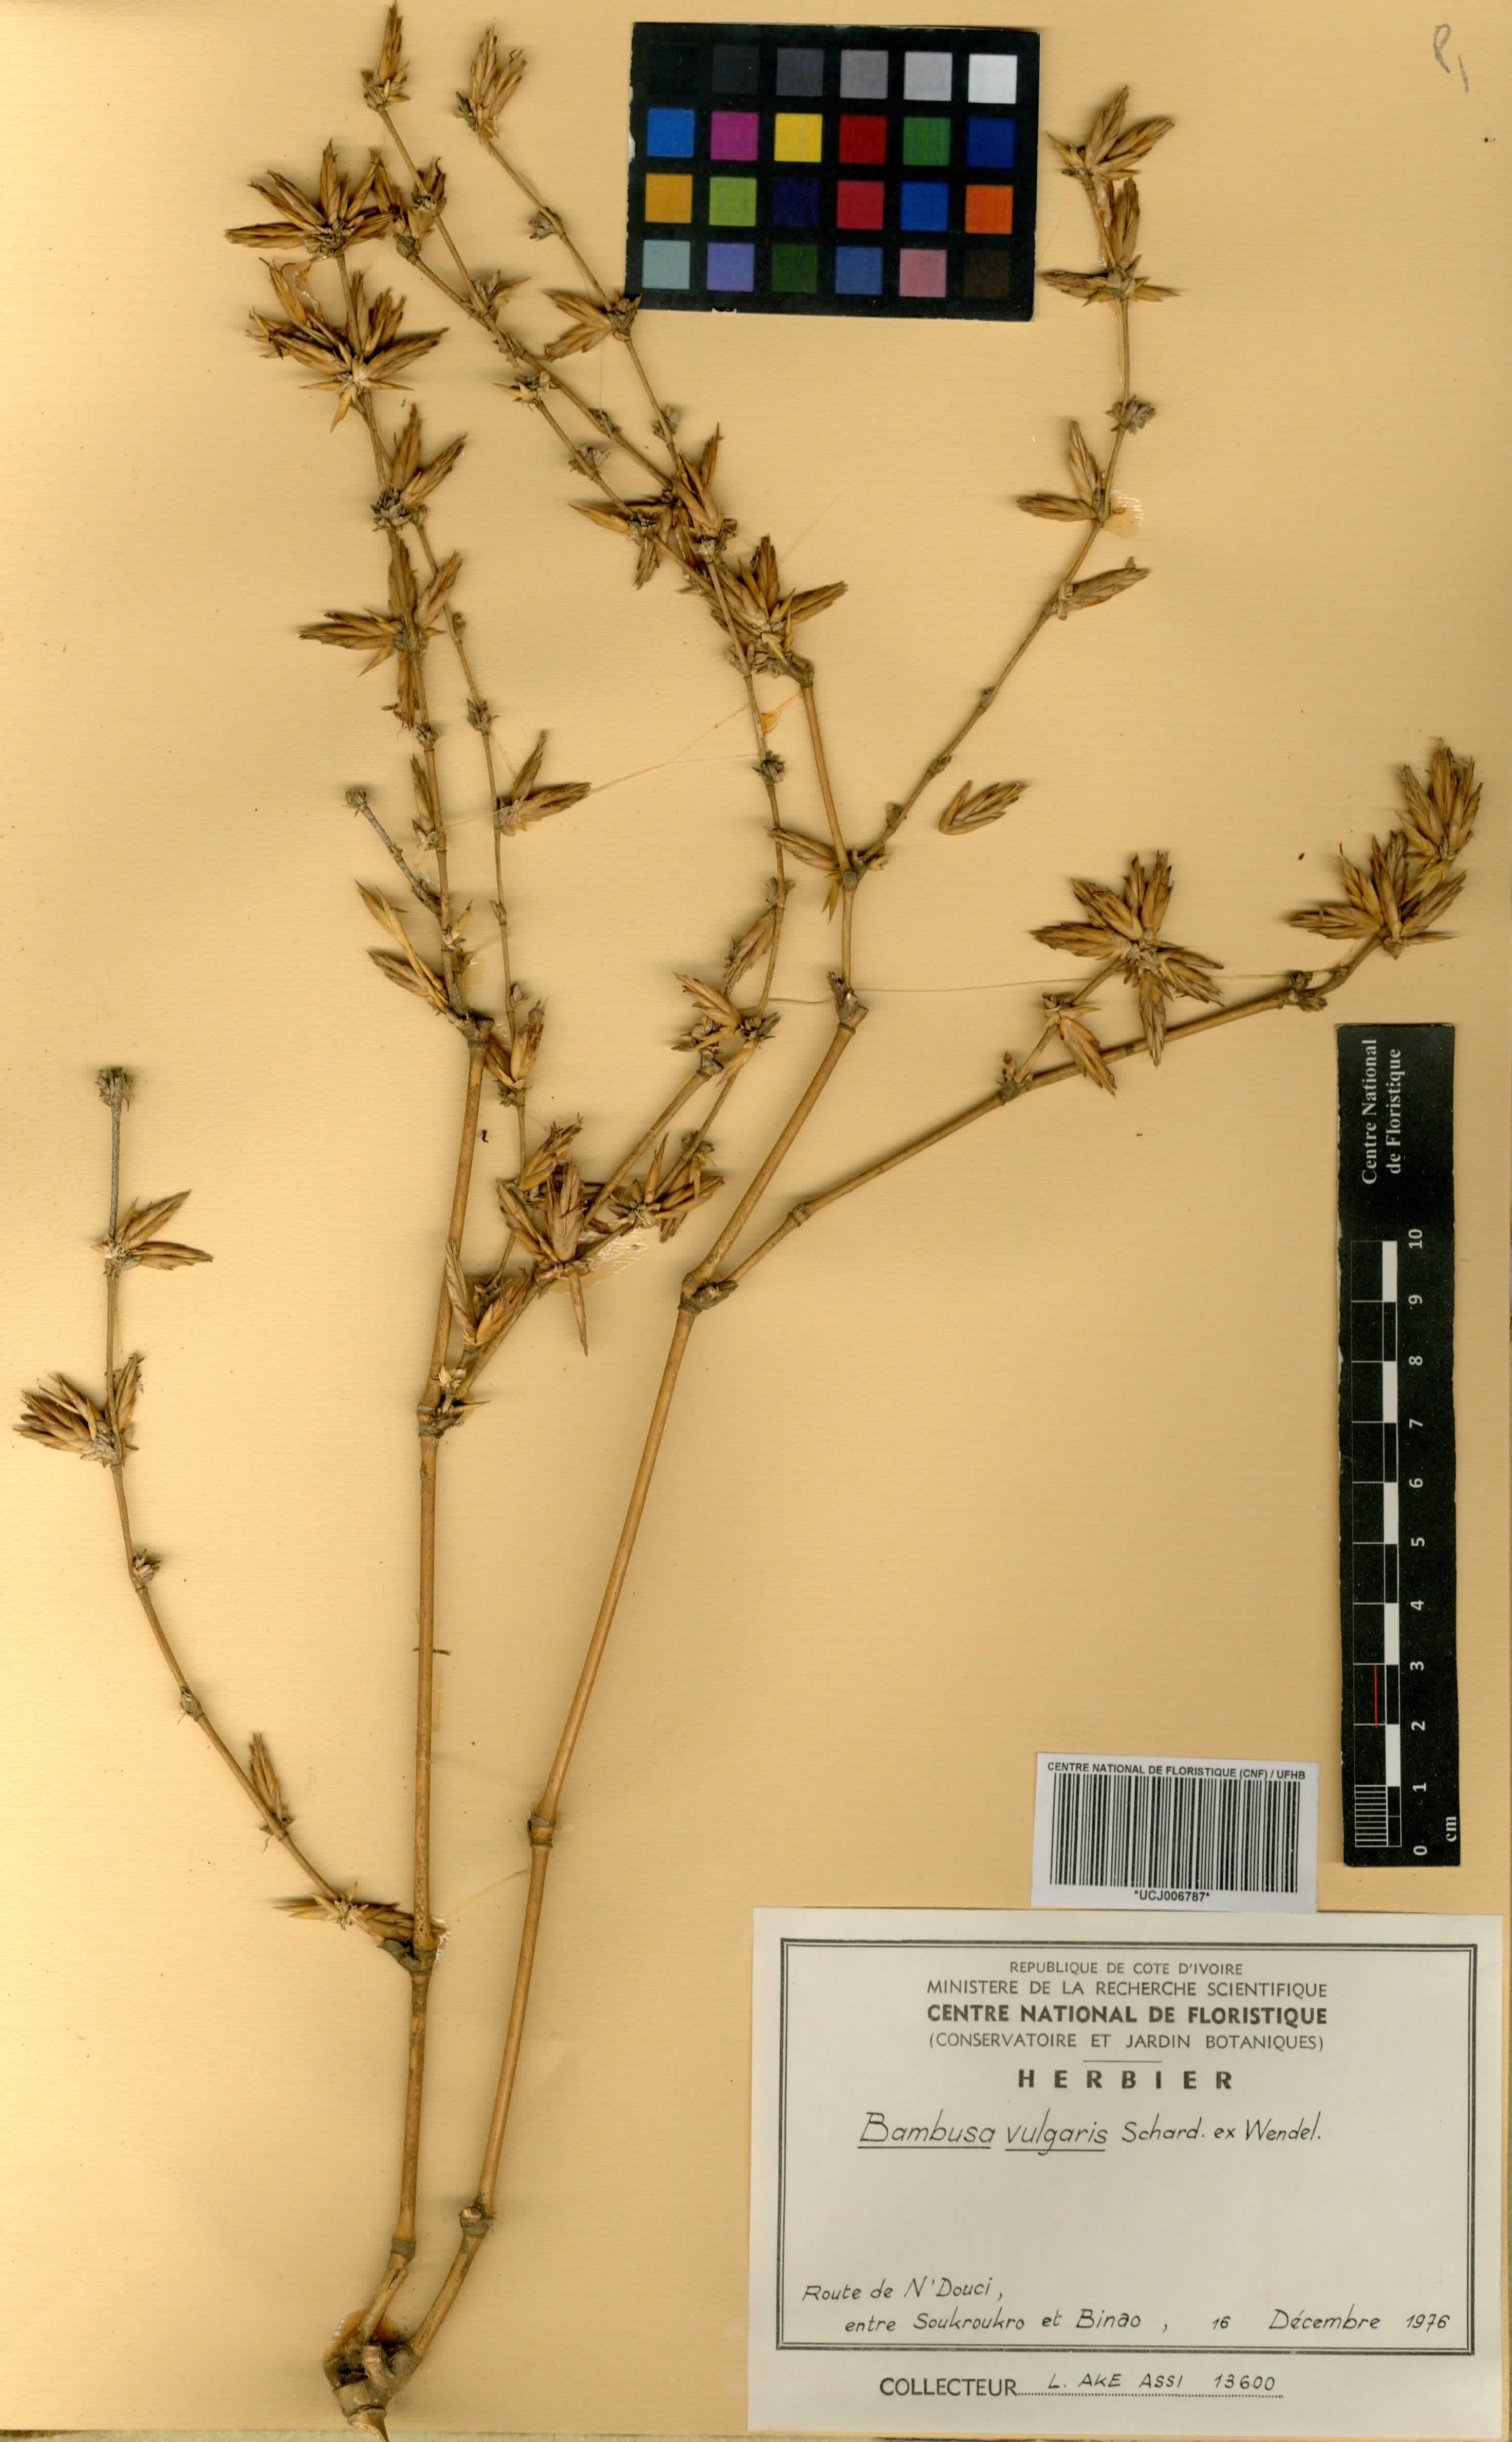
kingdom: Plantae
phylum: Tracheophyta
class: Liliopsida
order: Poales
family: Poaceae
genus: Bambusa
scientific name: Bambusa vulgaris
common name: Common bamboo
